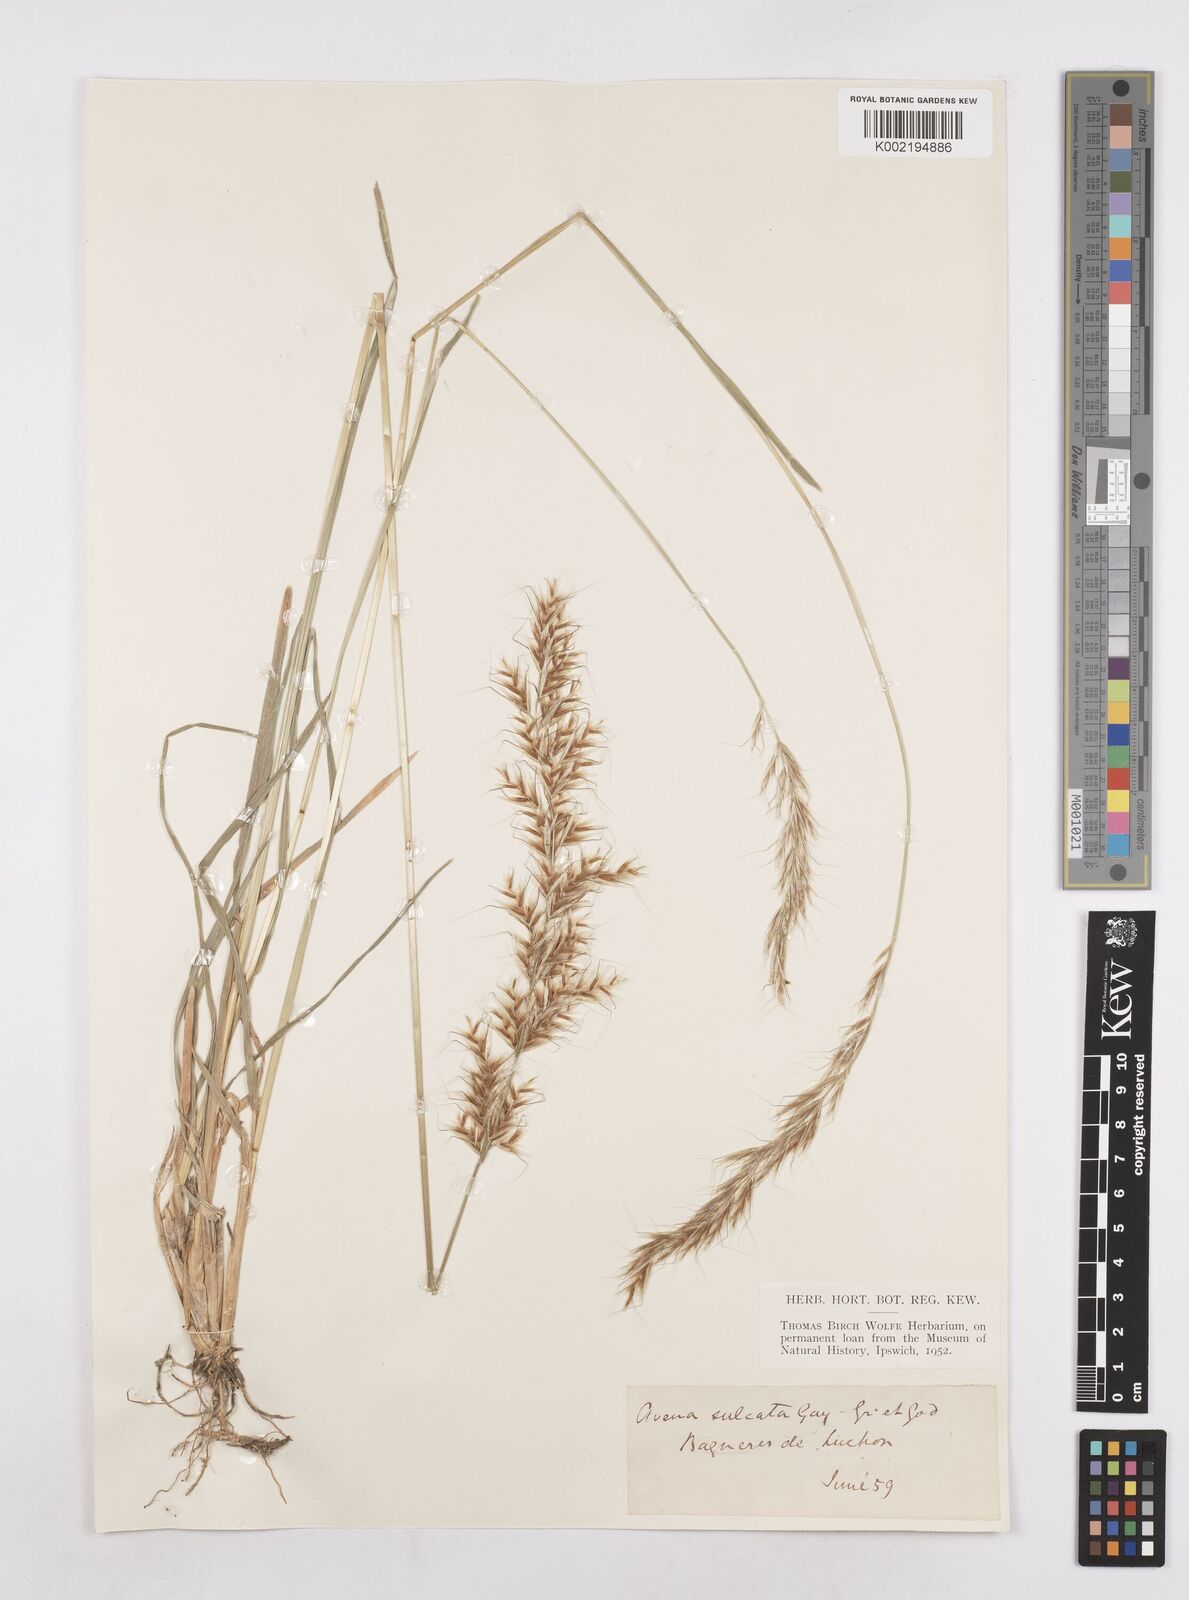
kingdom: Plantae
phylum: Tracheophyta
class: Liliopsida
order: Poales
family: Poaceae
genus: Helictotrichon
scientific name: Helictotrichon
